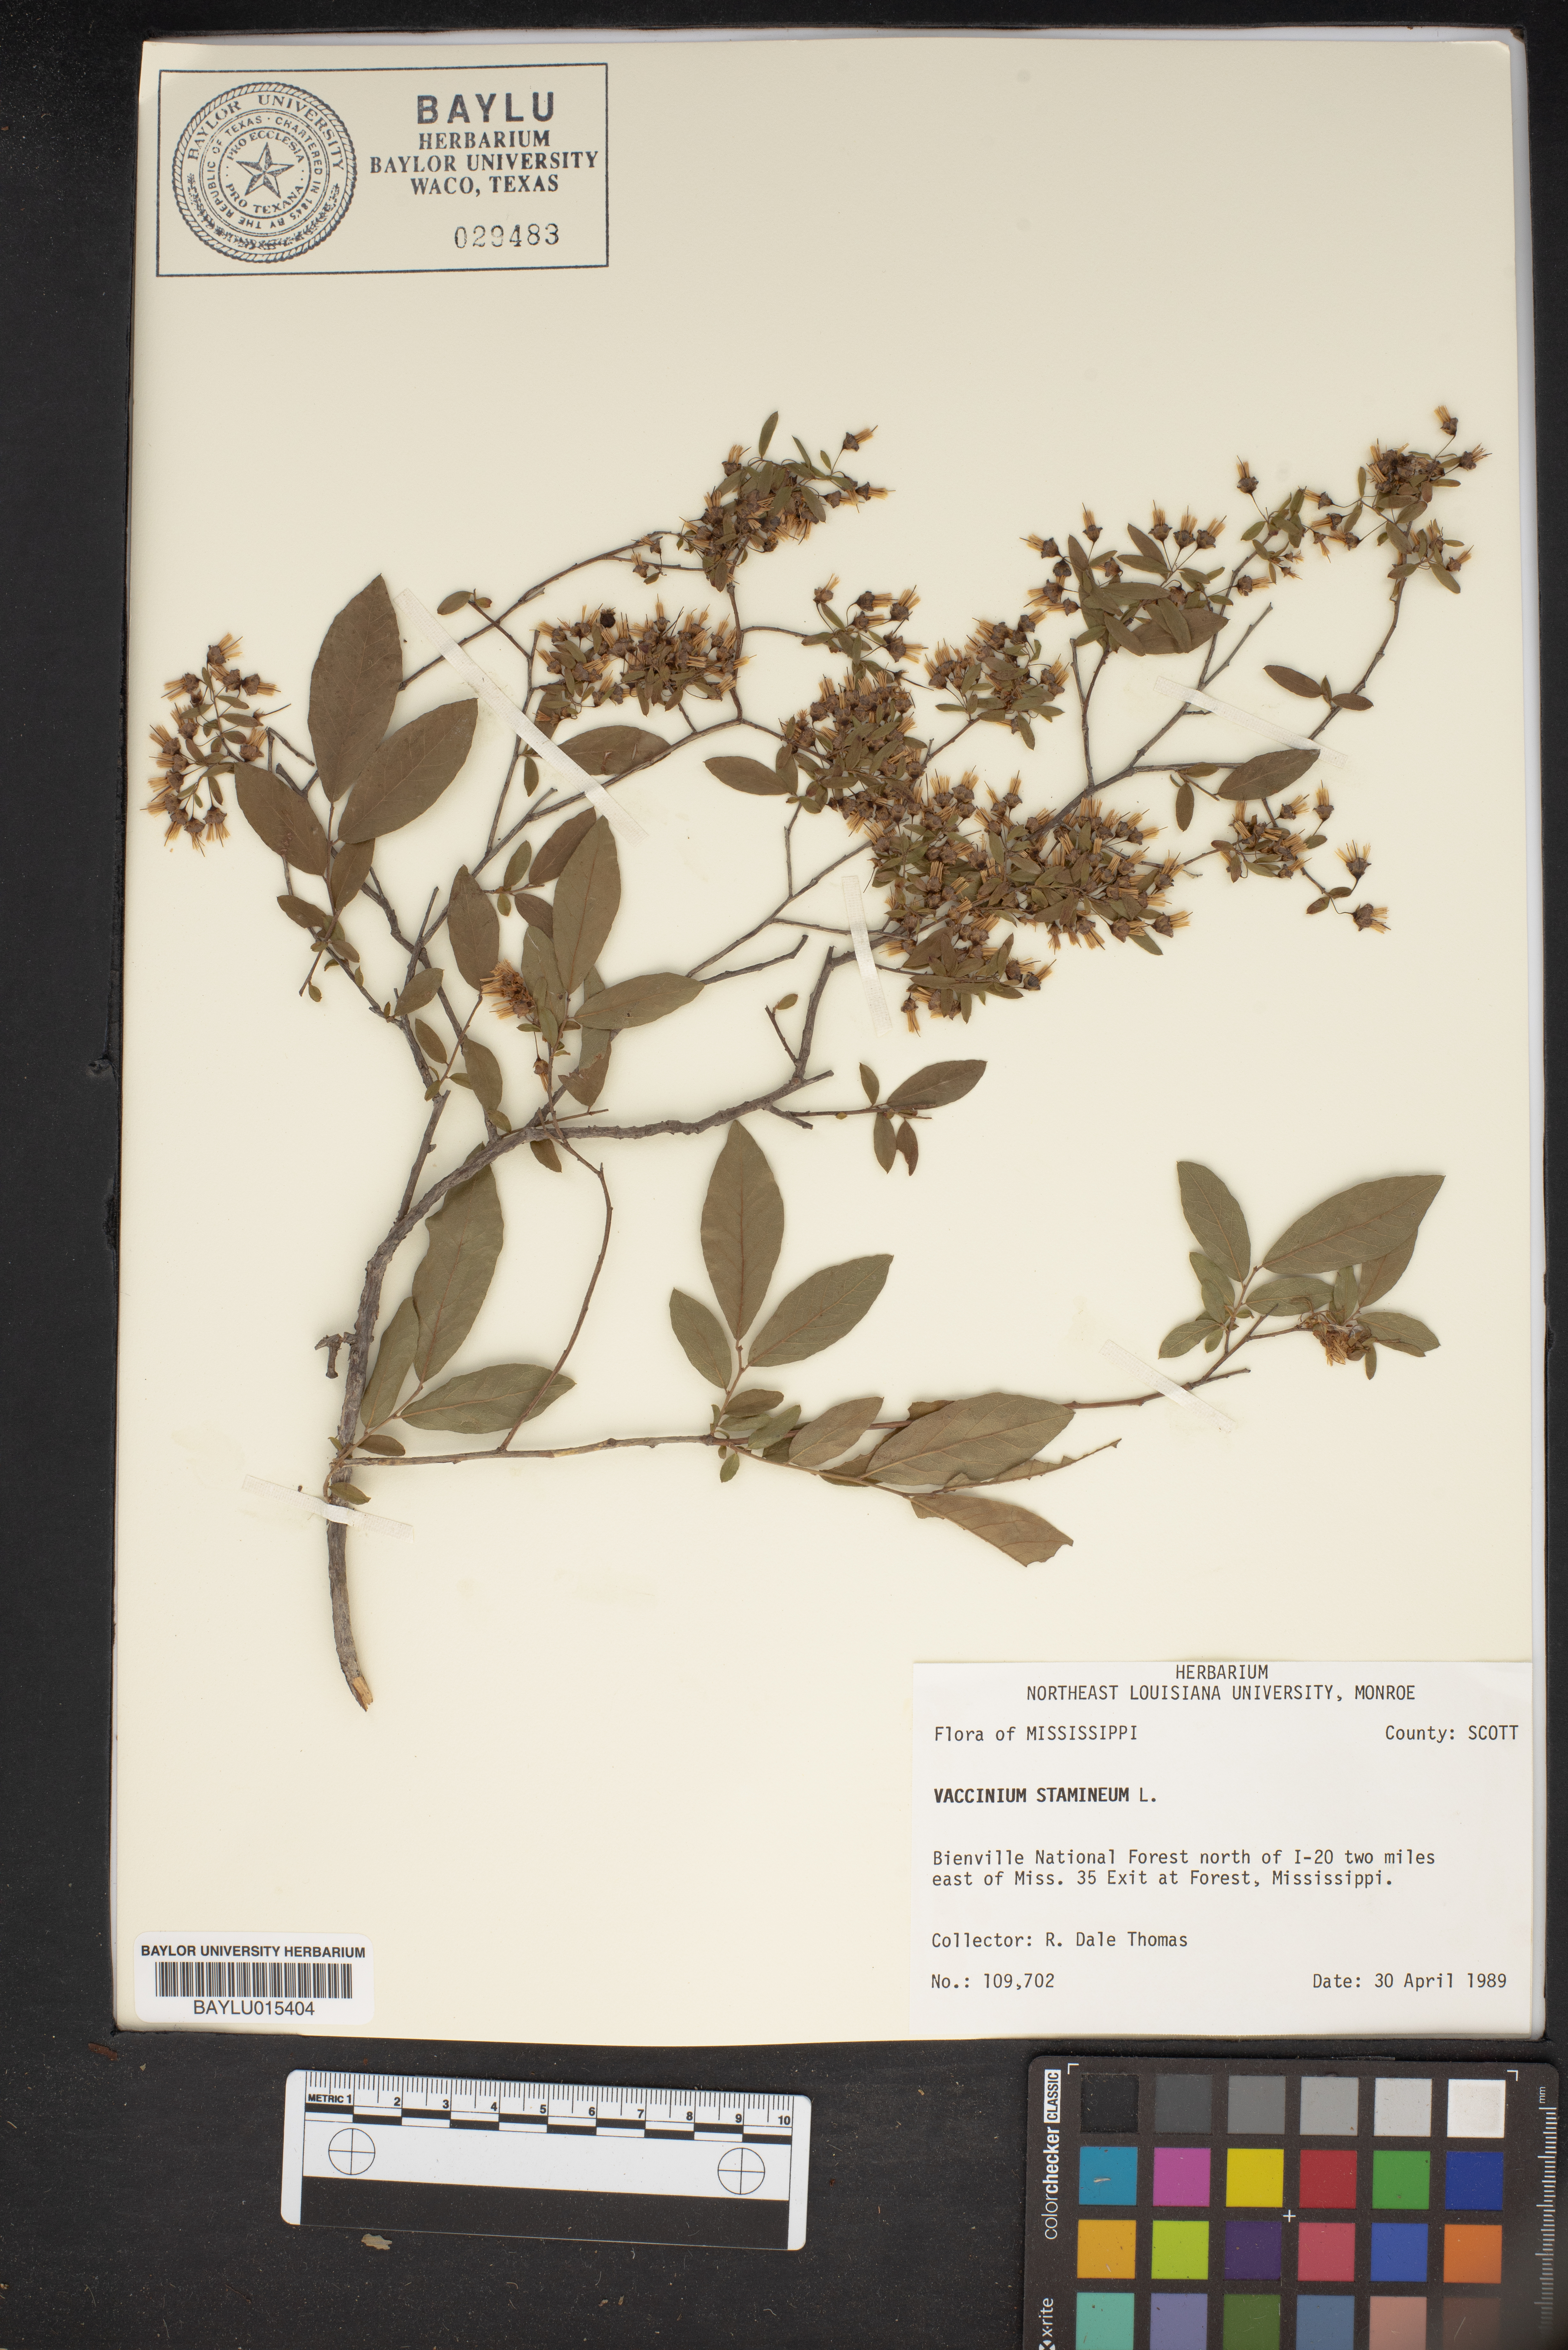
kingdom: Plantae
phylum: Tracheophyta
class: Magnoliopsida
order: Ericales
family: Ericaceae
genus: Vaccinium
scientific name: Vaccinium stamineum
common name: Deerberry
